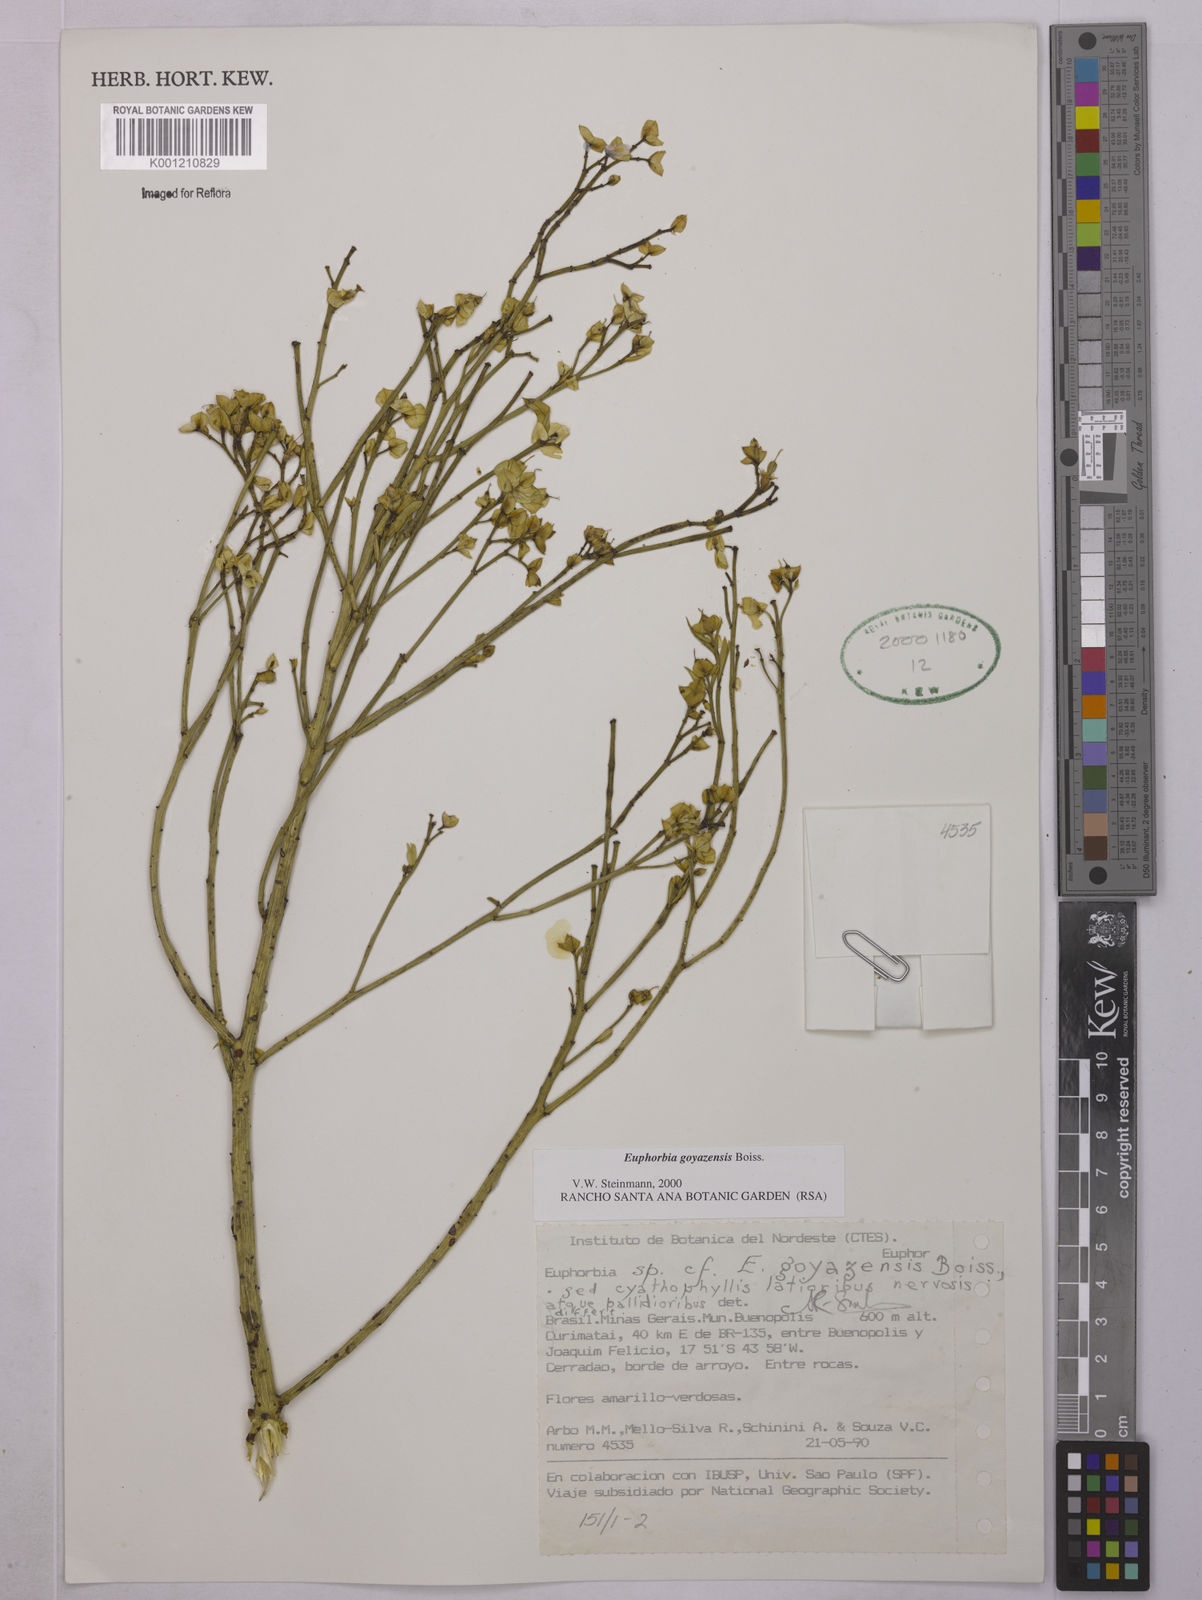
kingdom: Plantae
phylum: Tracheophyta
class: Magnoliopsida
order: Malpighiales
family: Euphorbiaceae
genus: Euphorbia
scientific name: Euphorbia goyazensis
